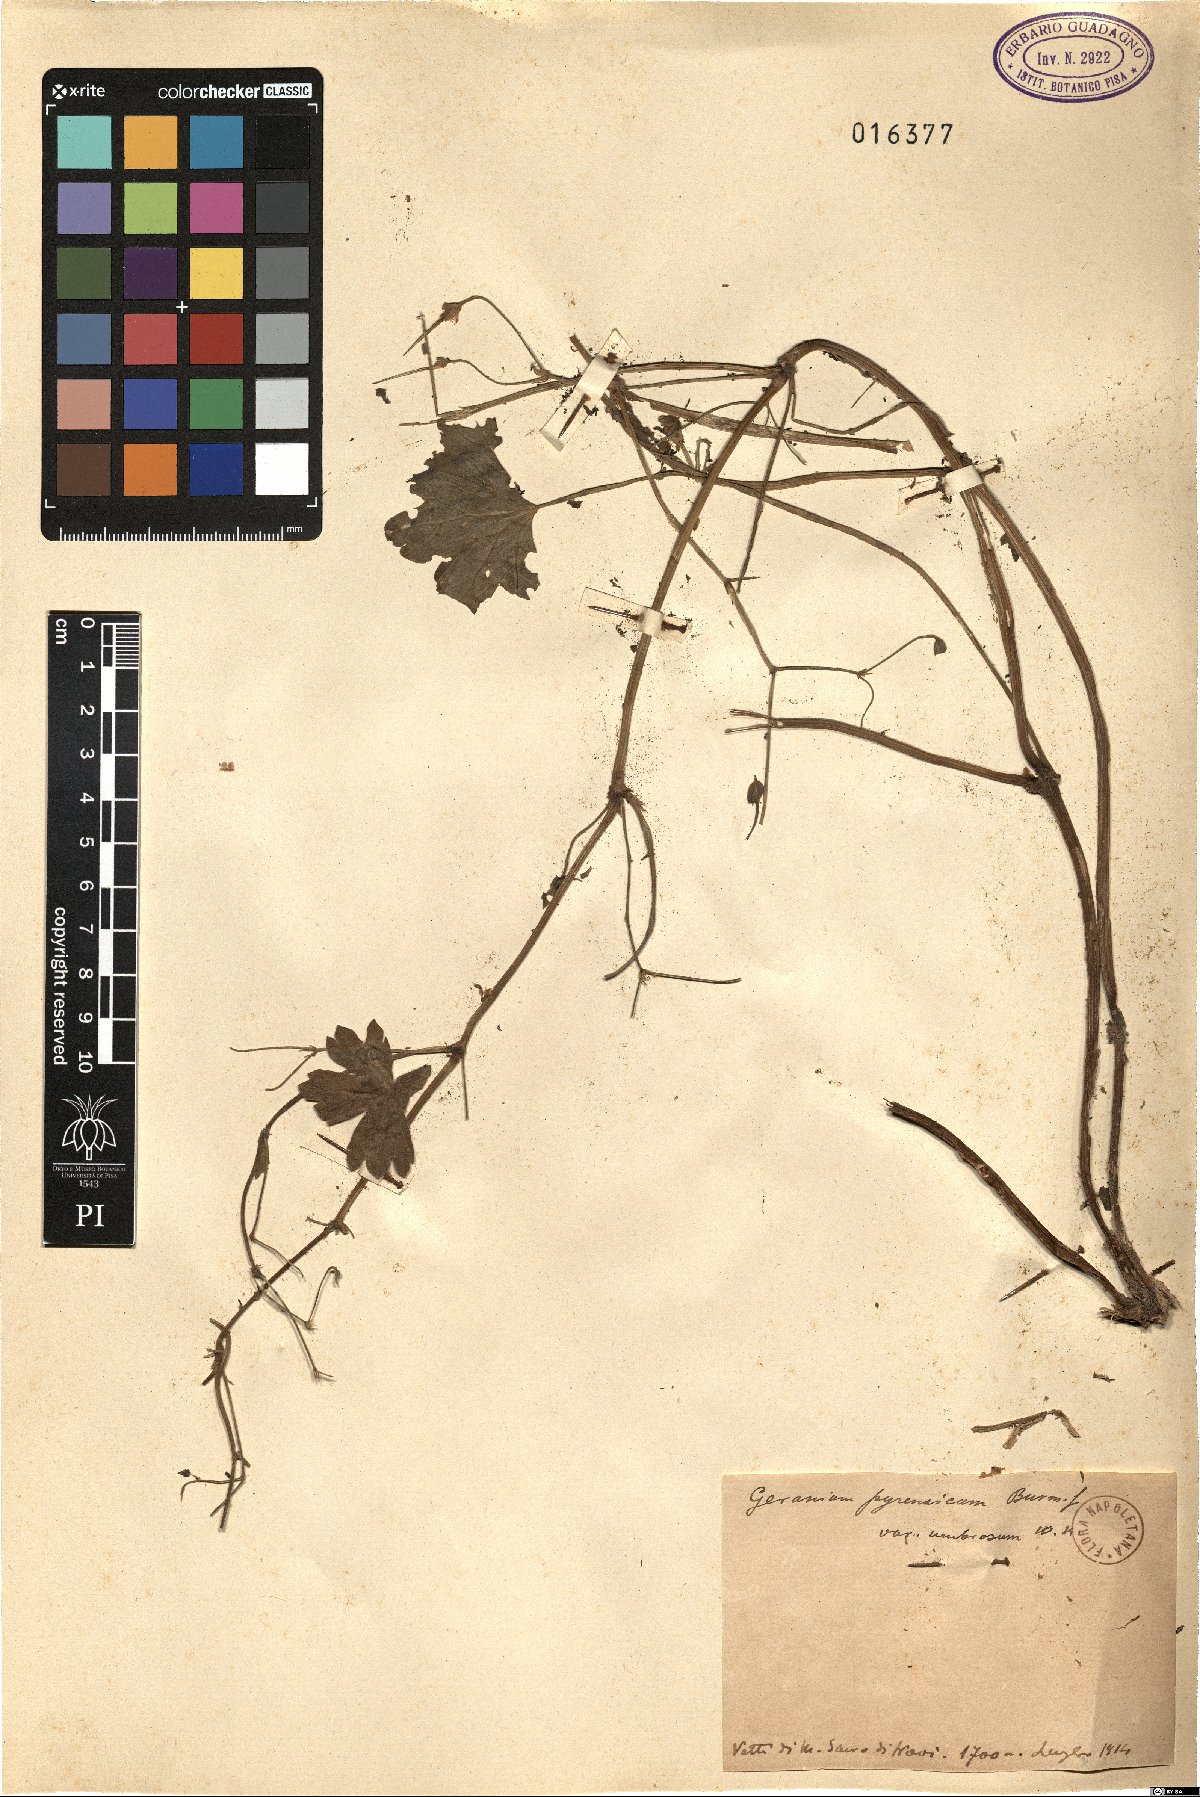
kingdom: Plantae
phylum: Tracheophyta
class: Magnoliopsida
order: Geraniales
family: Geraniaceae
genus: Geranium
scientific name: Geranium pyrenaicum
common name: Hedgerow crane's-bill
